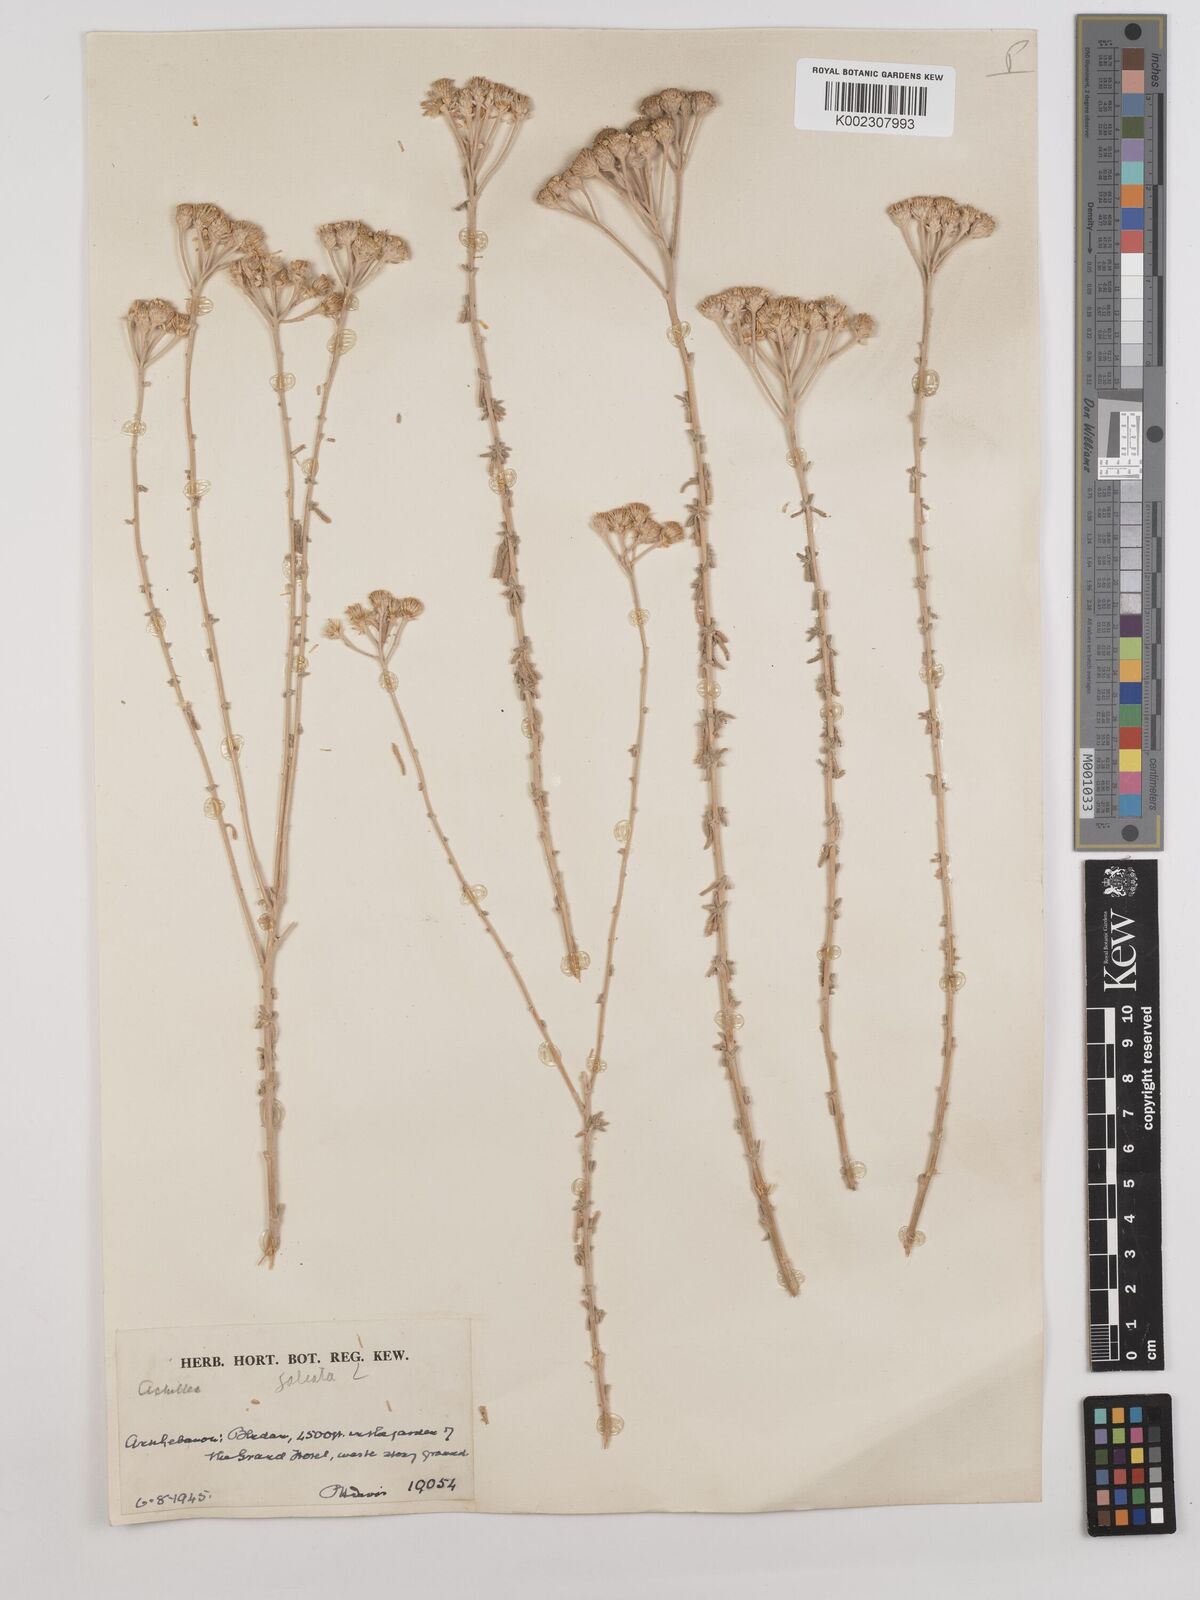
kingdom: Plantae
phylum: Tracheophyta
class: Magnoliopsida
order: Asterales
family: Asteraceae
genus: Achillea
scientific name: Achillea falcata
